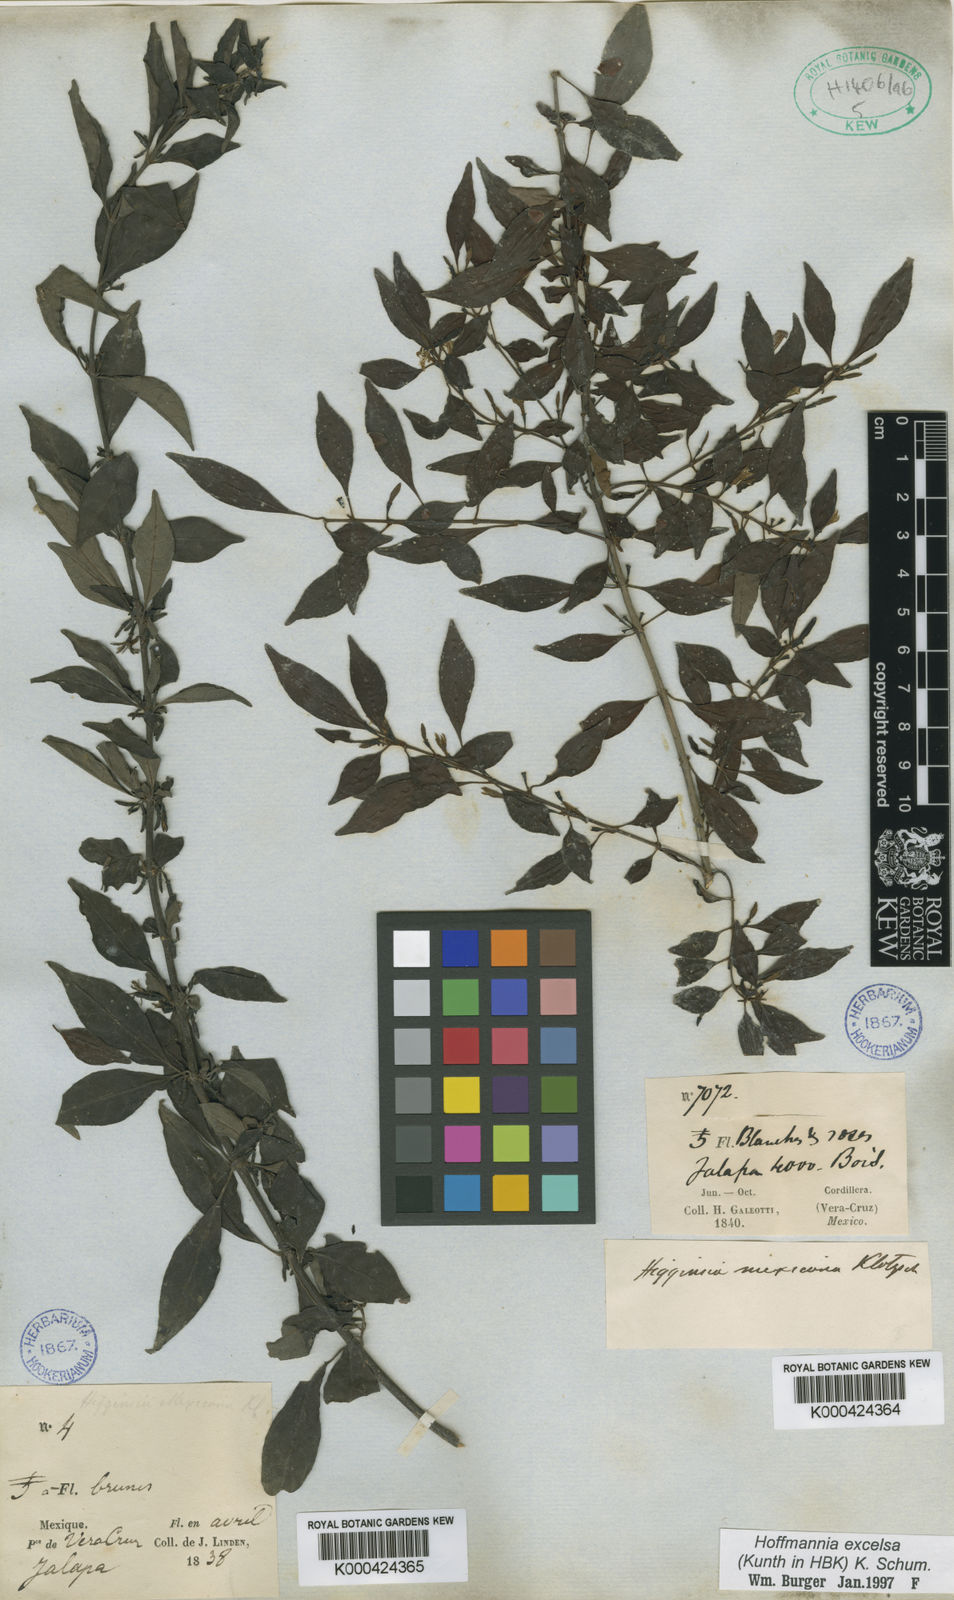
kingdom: Plantae
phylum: Tracheophyta
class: Magnoliopsida
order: Gentianales
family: Rubiaceae
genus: Hoffmannia
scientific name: Hoffmannia excelsa
